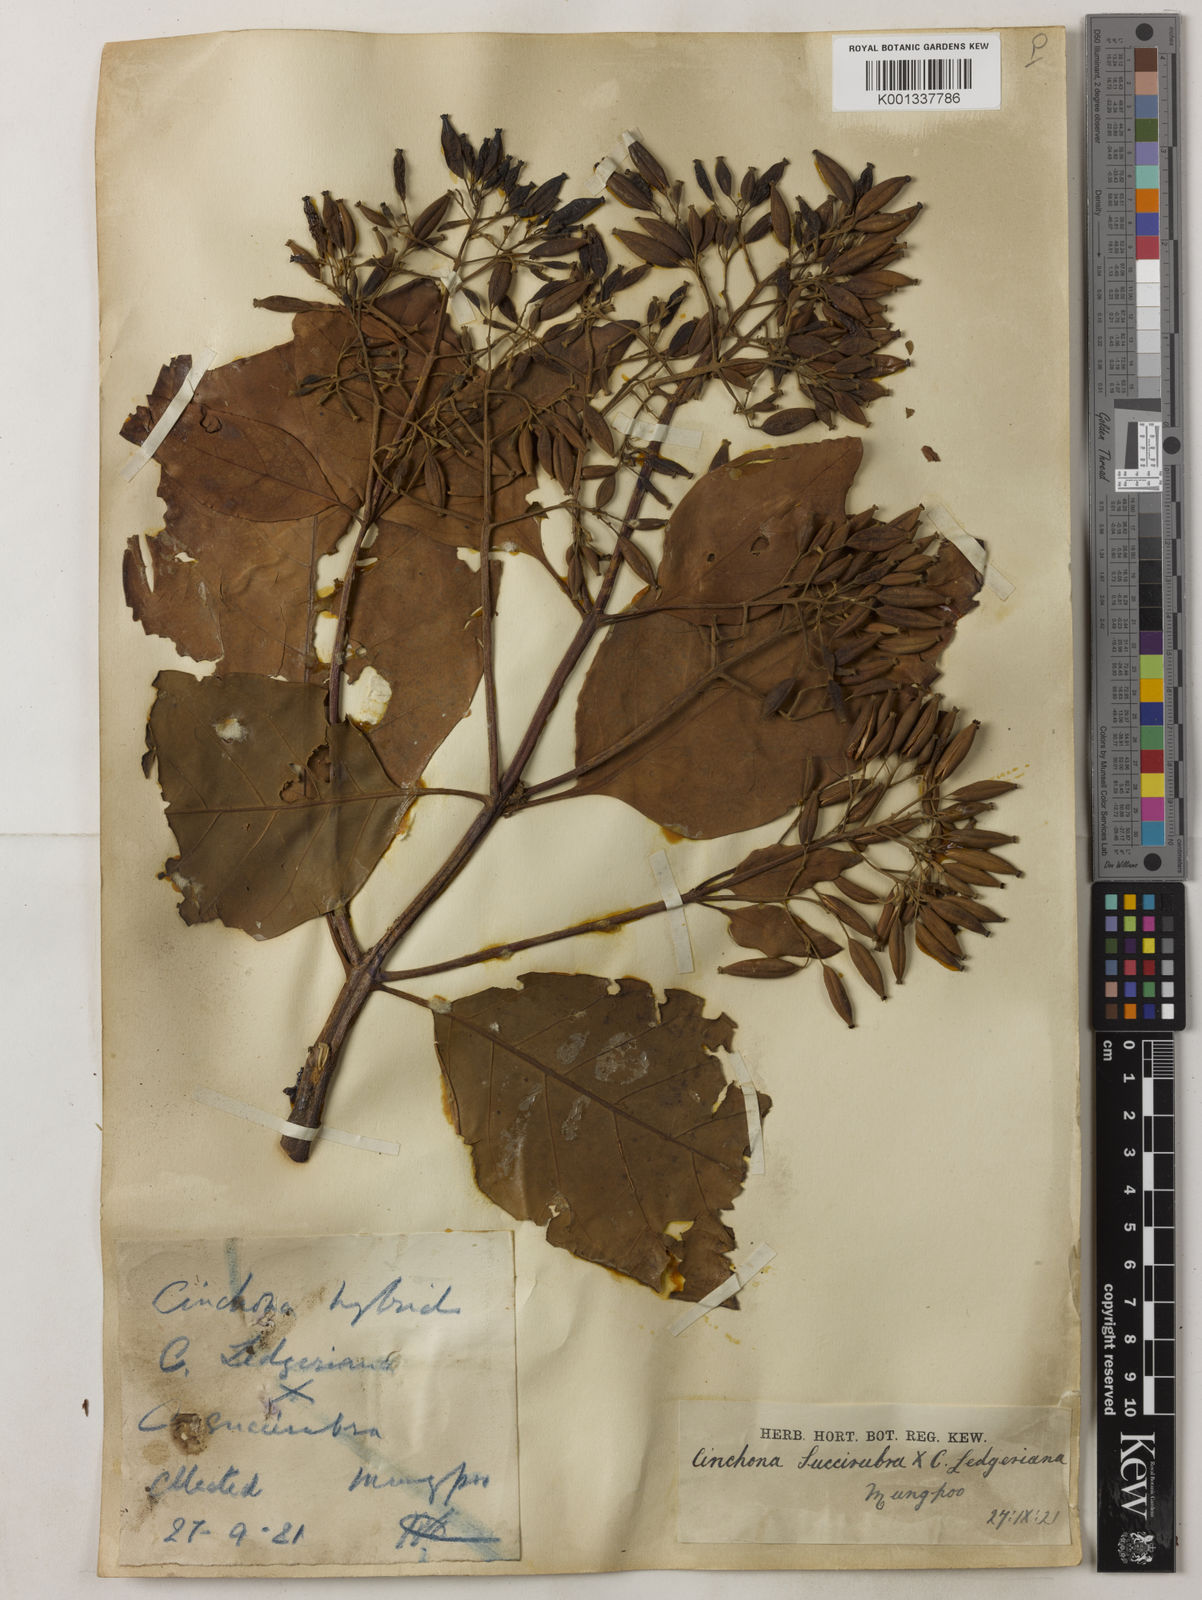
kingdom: Plantae
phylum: Tracheophyta
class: Magnoliopsida
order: Gentianales
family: Rubiaceae
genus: Cinchona
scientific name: Cinchona calisaya
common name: Ledgerbark
